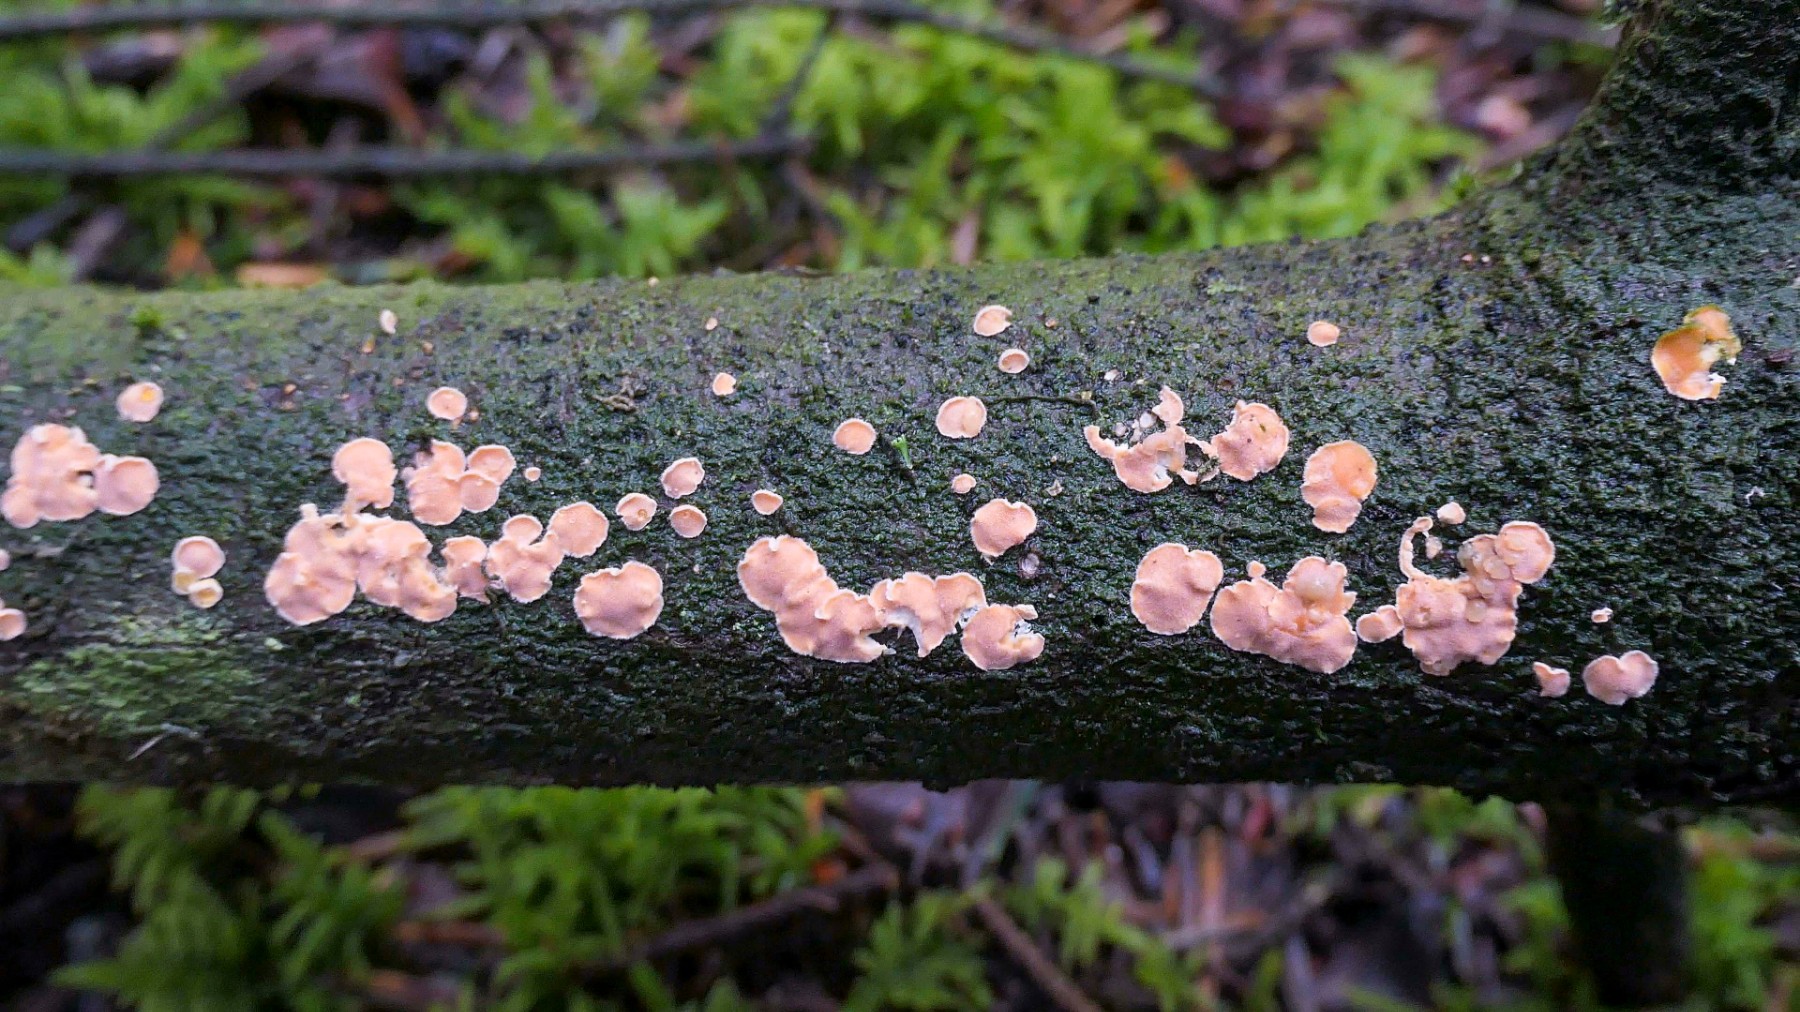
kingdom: Fungi
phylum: Basidiomycota
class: Agaricomycetes
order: Russulales
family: Stereaceae
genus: Aleurodiscus
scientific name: Aleurodiscus amorphus
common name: orange skiveskorpe
